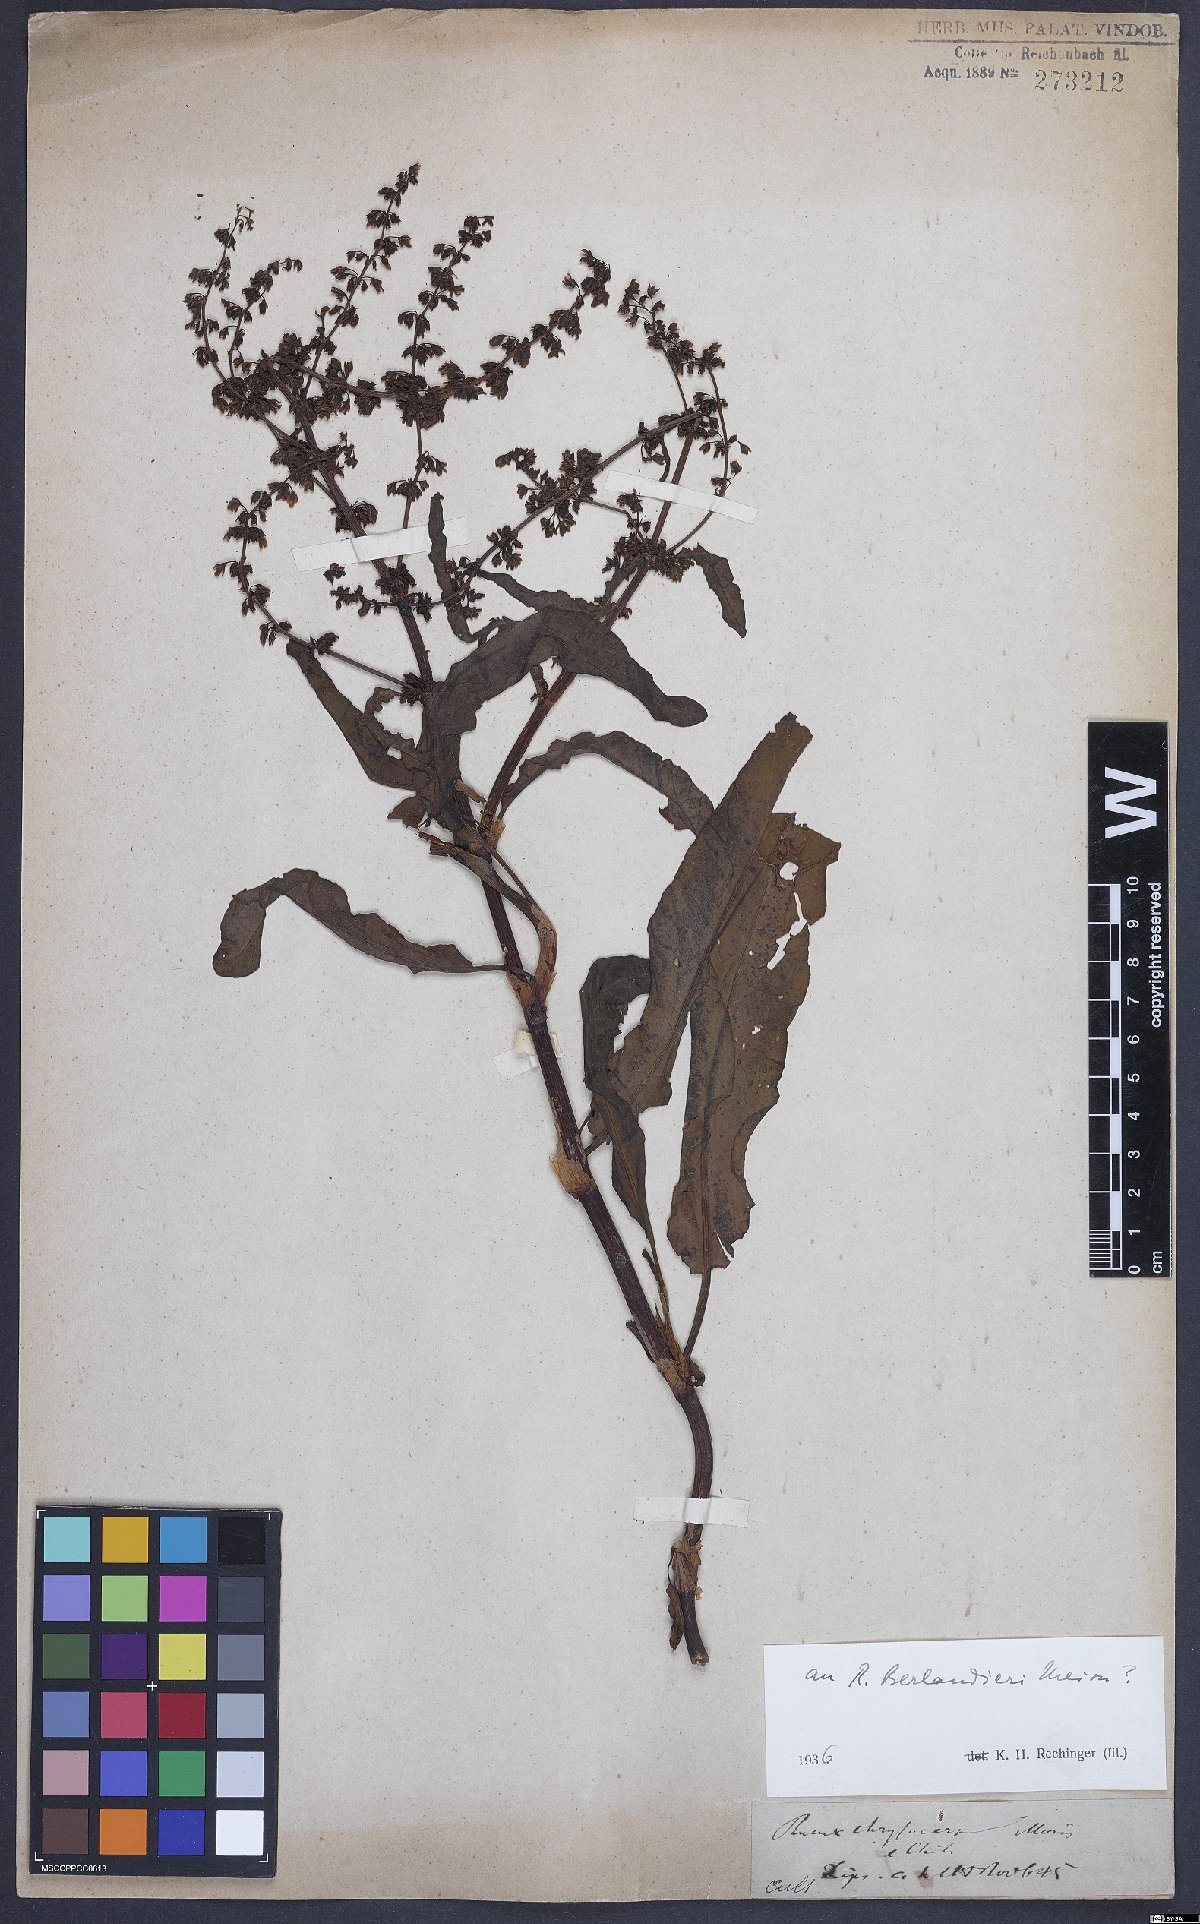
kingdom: Plantae
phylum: Tracheophyta
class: Magnoliopsida
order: Caryophyllales
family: Polygonaceae
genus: Rumex
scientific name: Rumex chrysocarpus
